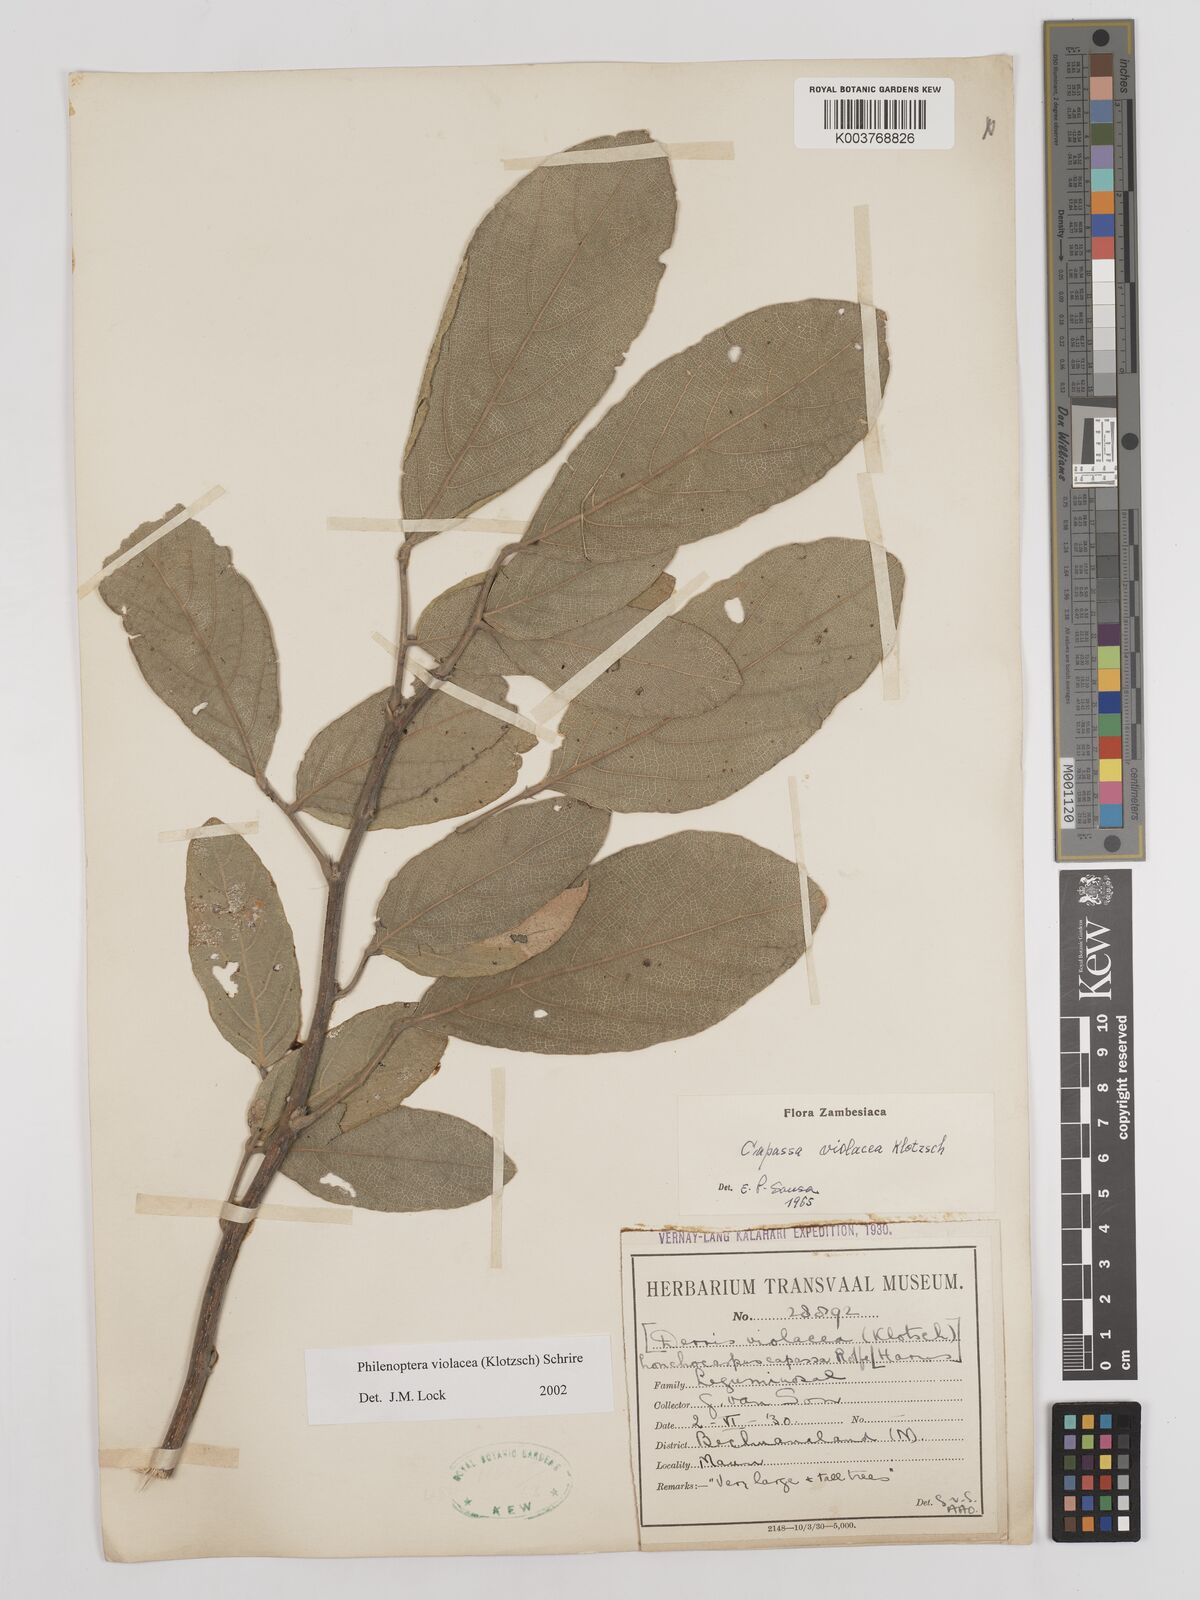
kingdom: Plantae
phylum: Tracheophyta
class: Magnoliopsida
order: Fabales
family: Fabaceae
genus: Philenoptera
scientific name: Philenoptera violacea
